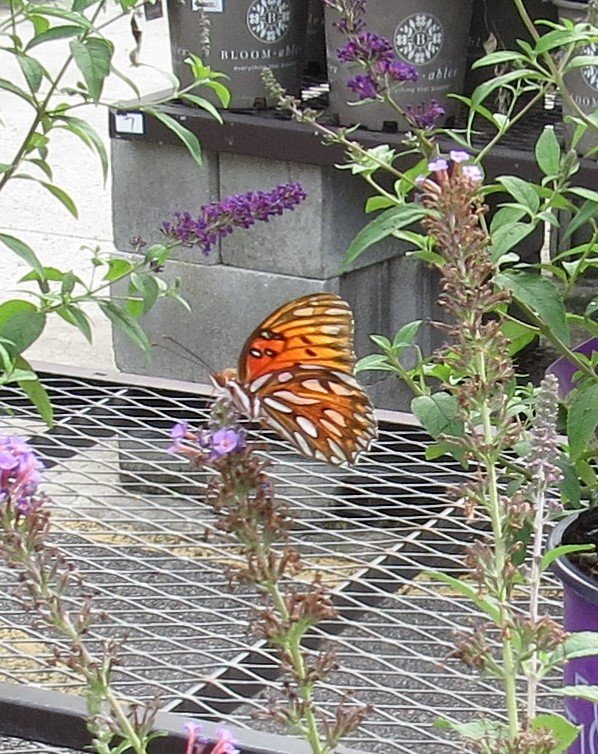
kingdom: Animalia
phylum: Arthropoda
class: Insecta
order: Lepidoptera
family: Nymphalidae
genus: Dione
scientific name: Dione vanillae
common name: Gulf Fritillary
